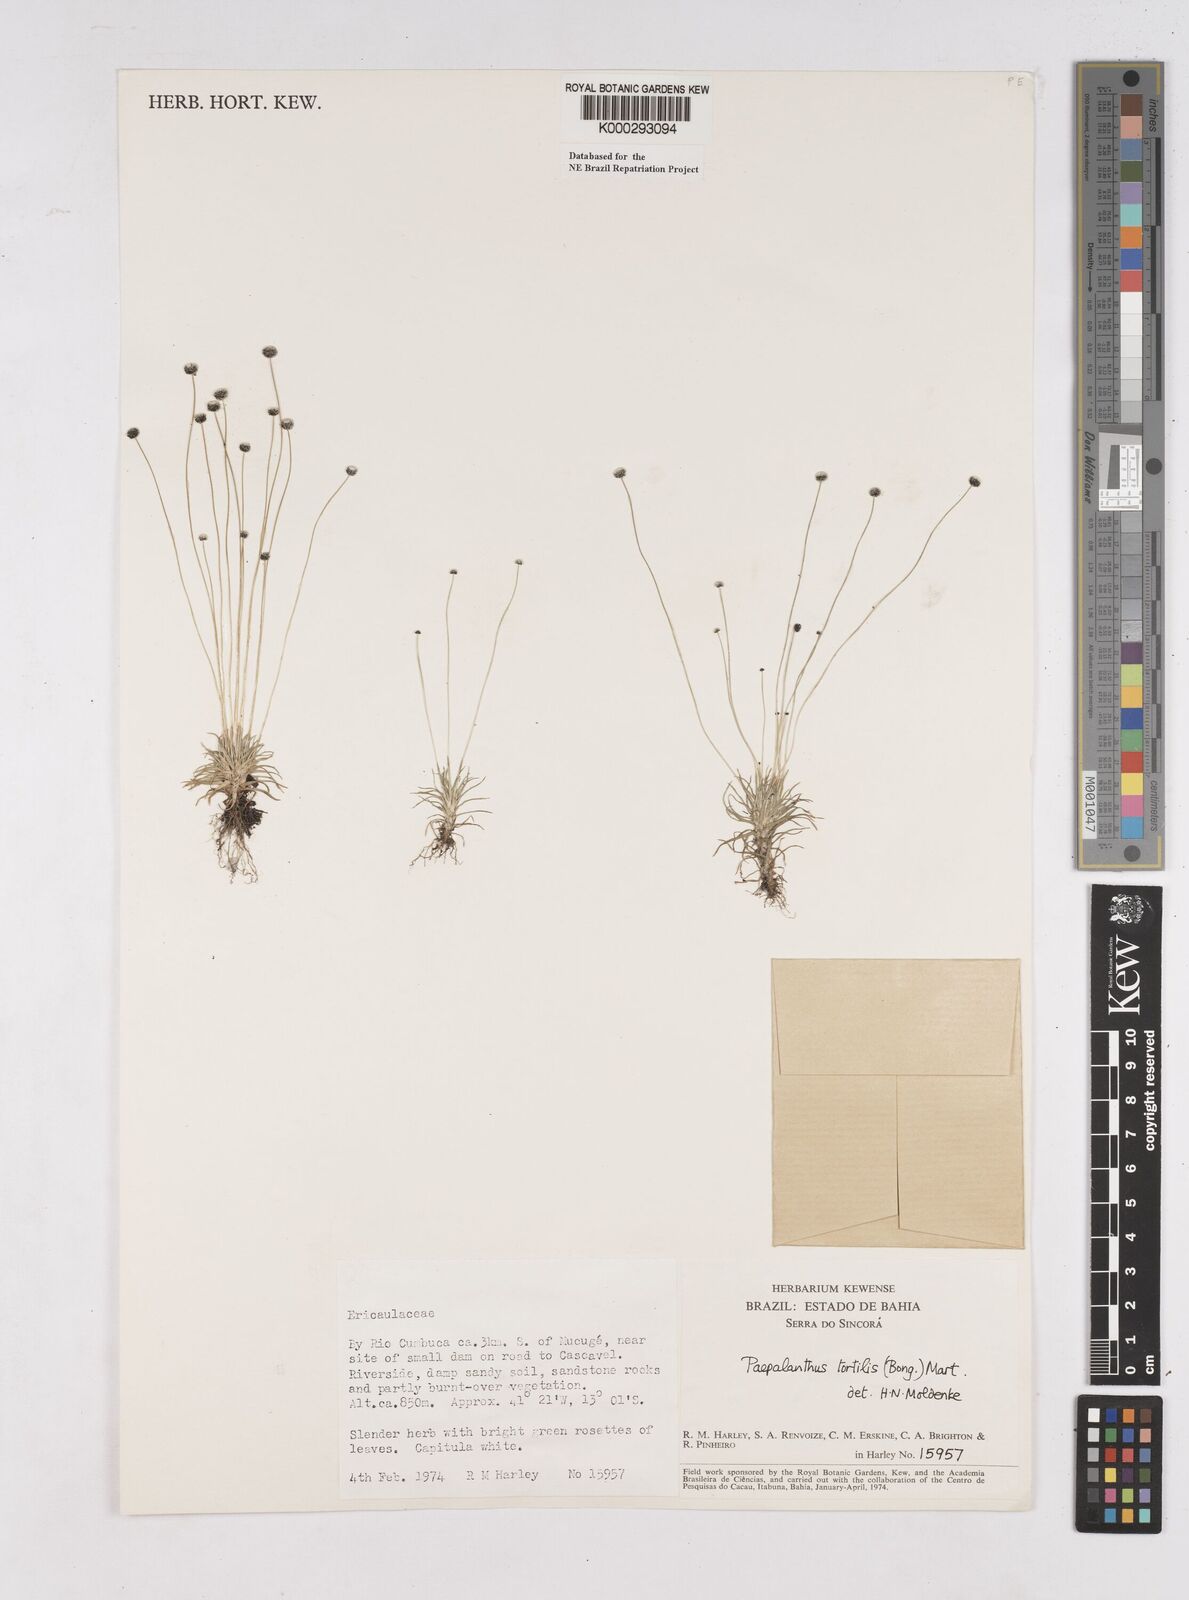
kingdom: Plantae
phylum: Tracheophyta
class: Liliopsida
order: Poales
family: Eriocaulaceae
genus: Paepalanthus
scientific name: Paepalanthus
